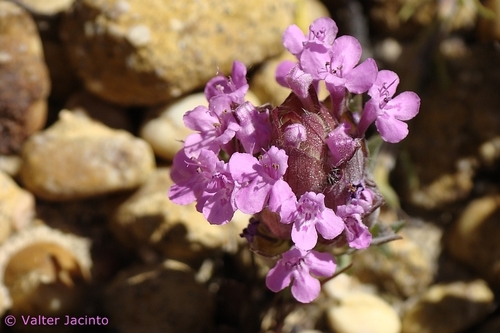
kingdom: Plantae
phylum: Tracheophyta
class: Magnoliopsida
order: Lamiales
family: Lamiaceae
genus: Thymus
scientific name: Thymus lotocephalus
